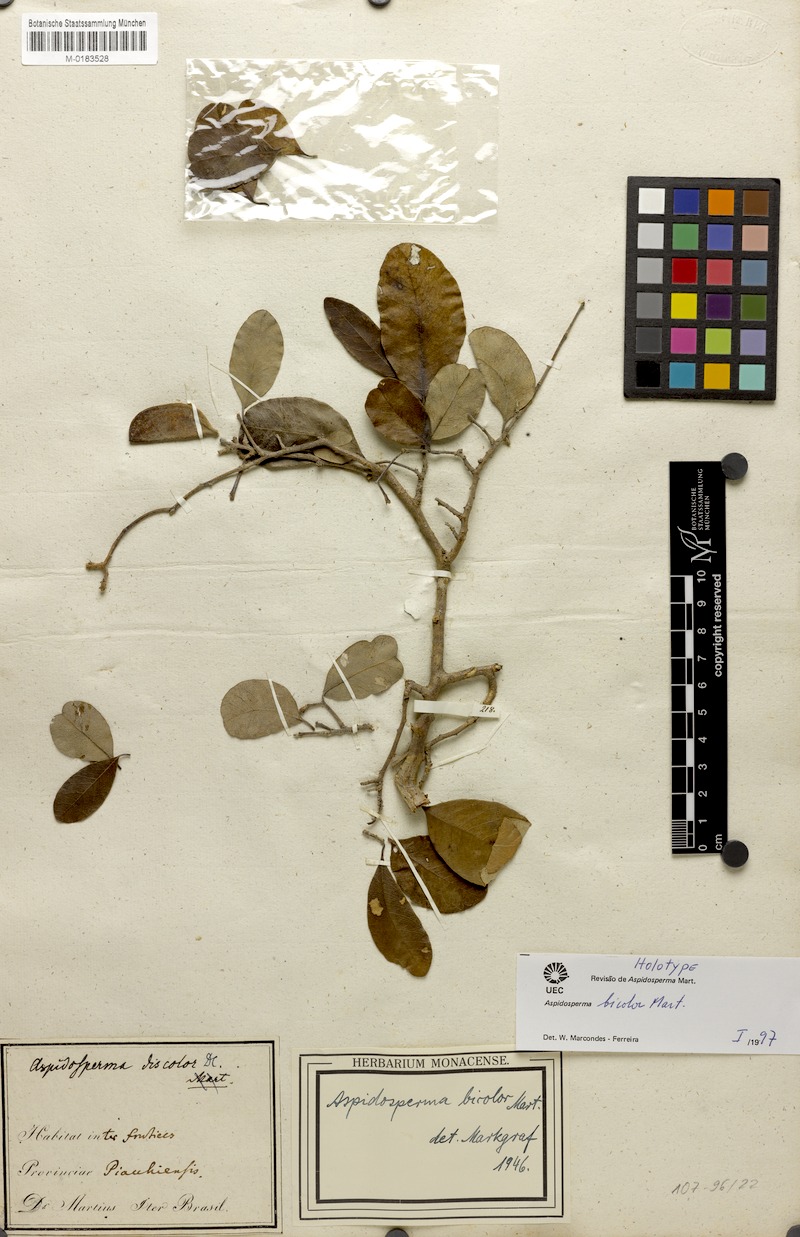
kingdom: Plantae
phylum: Tracheophyta
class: Magnoliopsida
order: Gentianales
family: Apocynaceae
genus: Aspidosperma
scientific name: Aspidosperma pyrifolium
